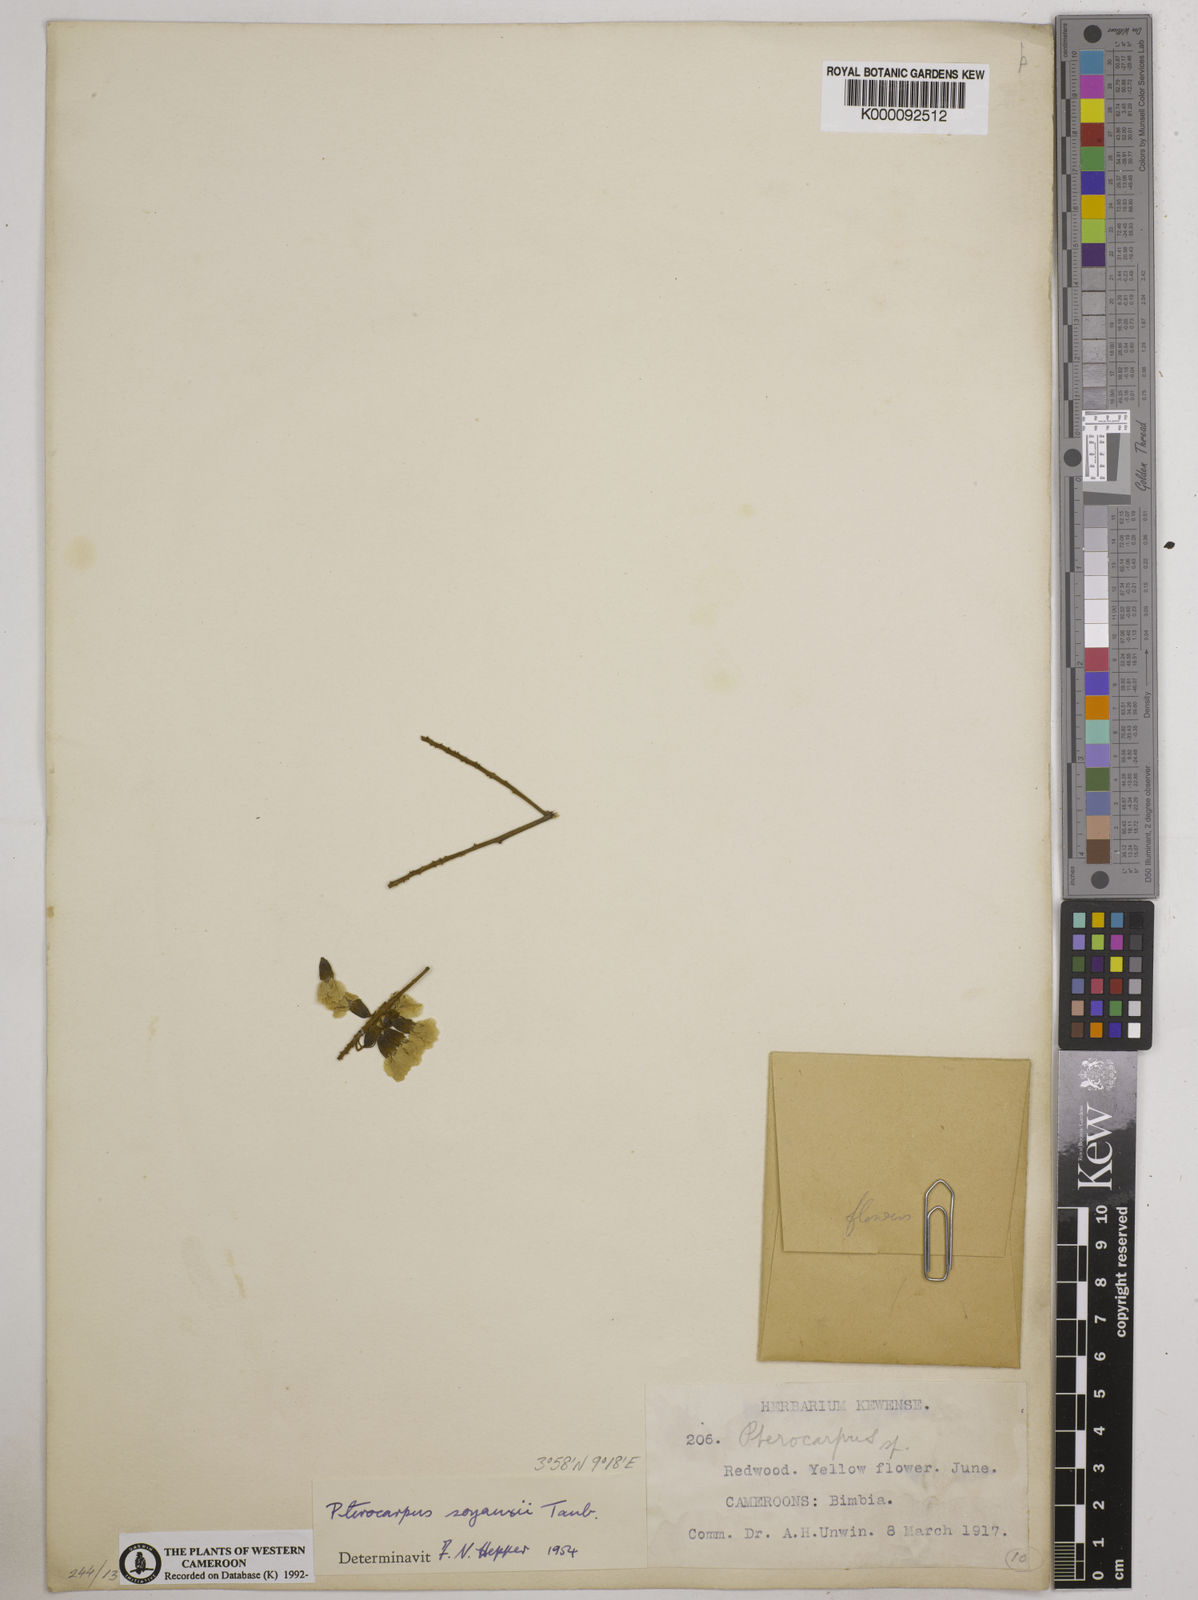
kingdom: Plantae
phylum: Tracheophyta
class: Magnoliopsida
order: Fabales
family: Fabaceae
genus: Pterocarpus
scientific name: Pterocarpus soyauxii
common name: African coralwood
